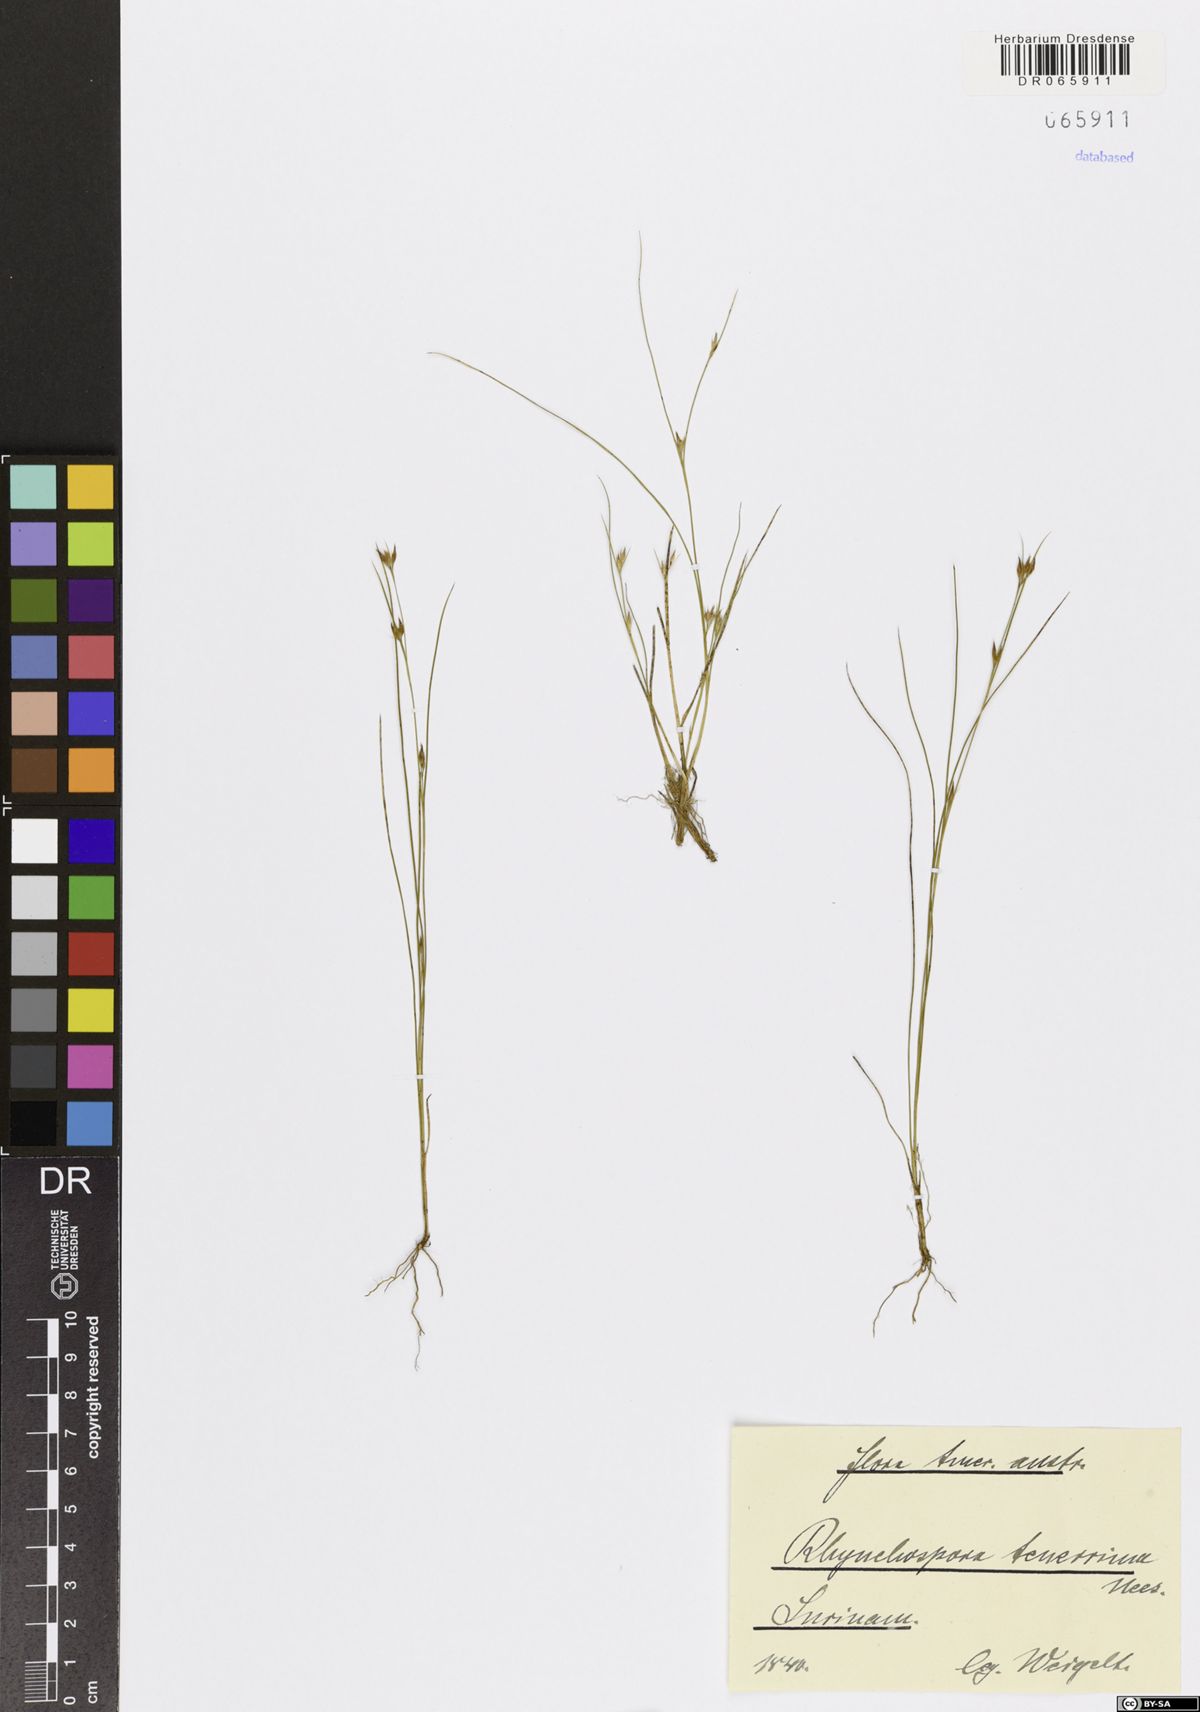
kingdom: Plantae
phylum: Tracheophyta
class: Liliopsida
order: Poales
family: Cyperaceae
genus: Rhynchospora
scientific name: Rhynchospora tenerrima
